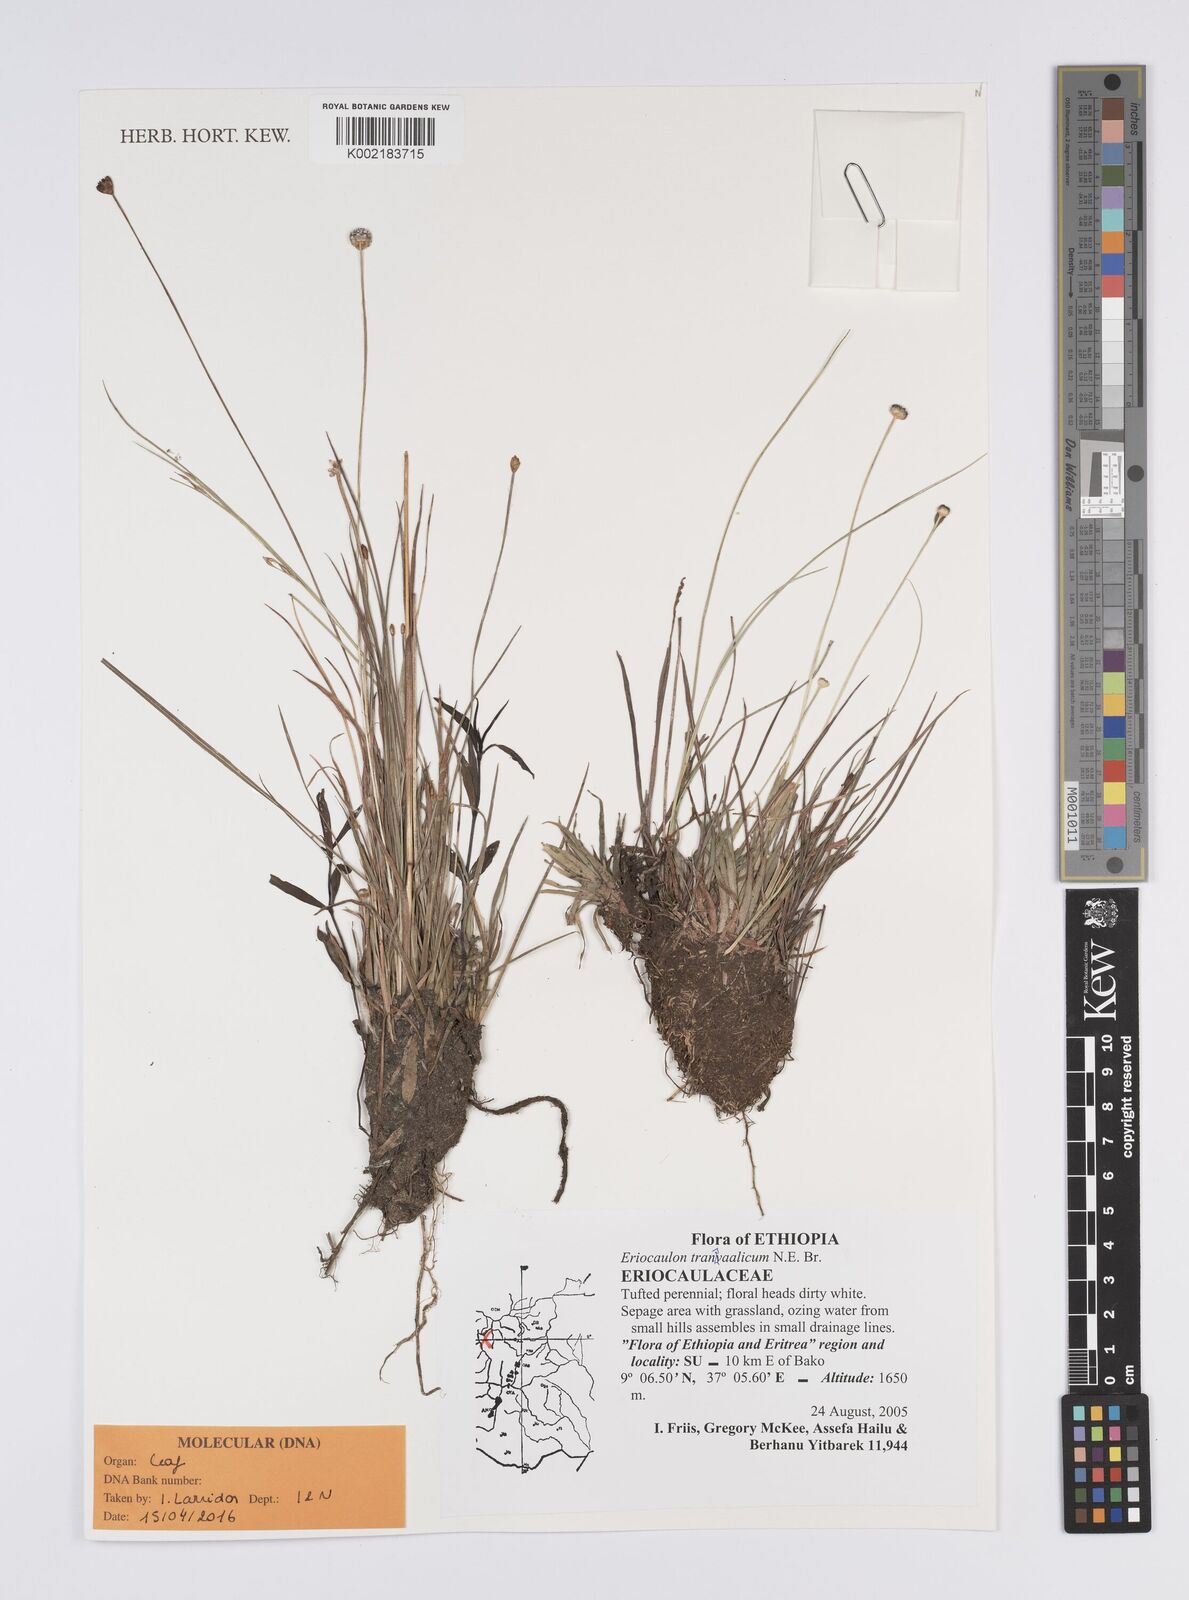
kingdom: Plantae
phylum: Tracheophyta
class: Liliopsida
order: Poales
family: Eriocaulaceae
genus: Eriocaulon
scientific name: Eriocaulon transvaalicum
